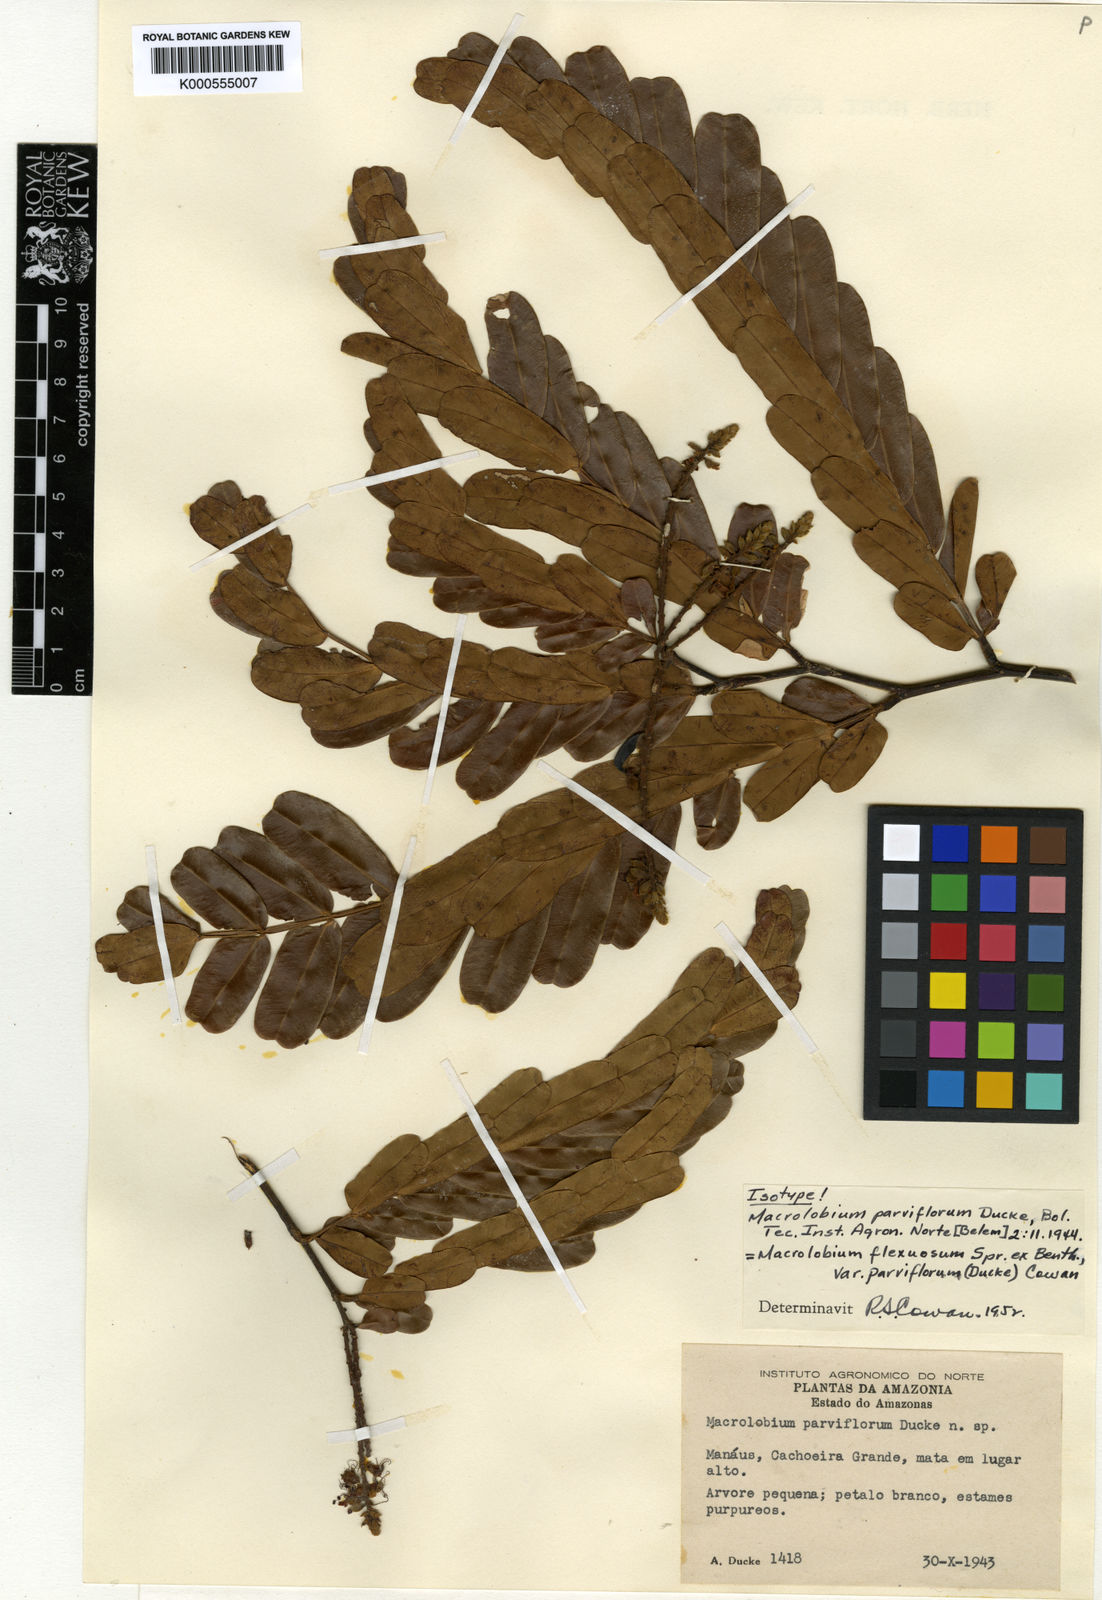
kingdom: Plantae
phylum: Tracheophyta
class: Magnoliopsida
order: Fabales
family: Fabaceae
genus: Macrolobium
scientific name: Macrolobium flexuosum
